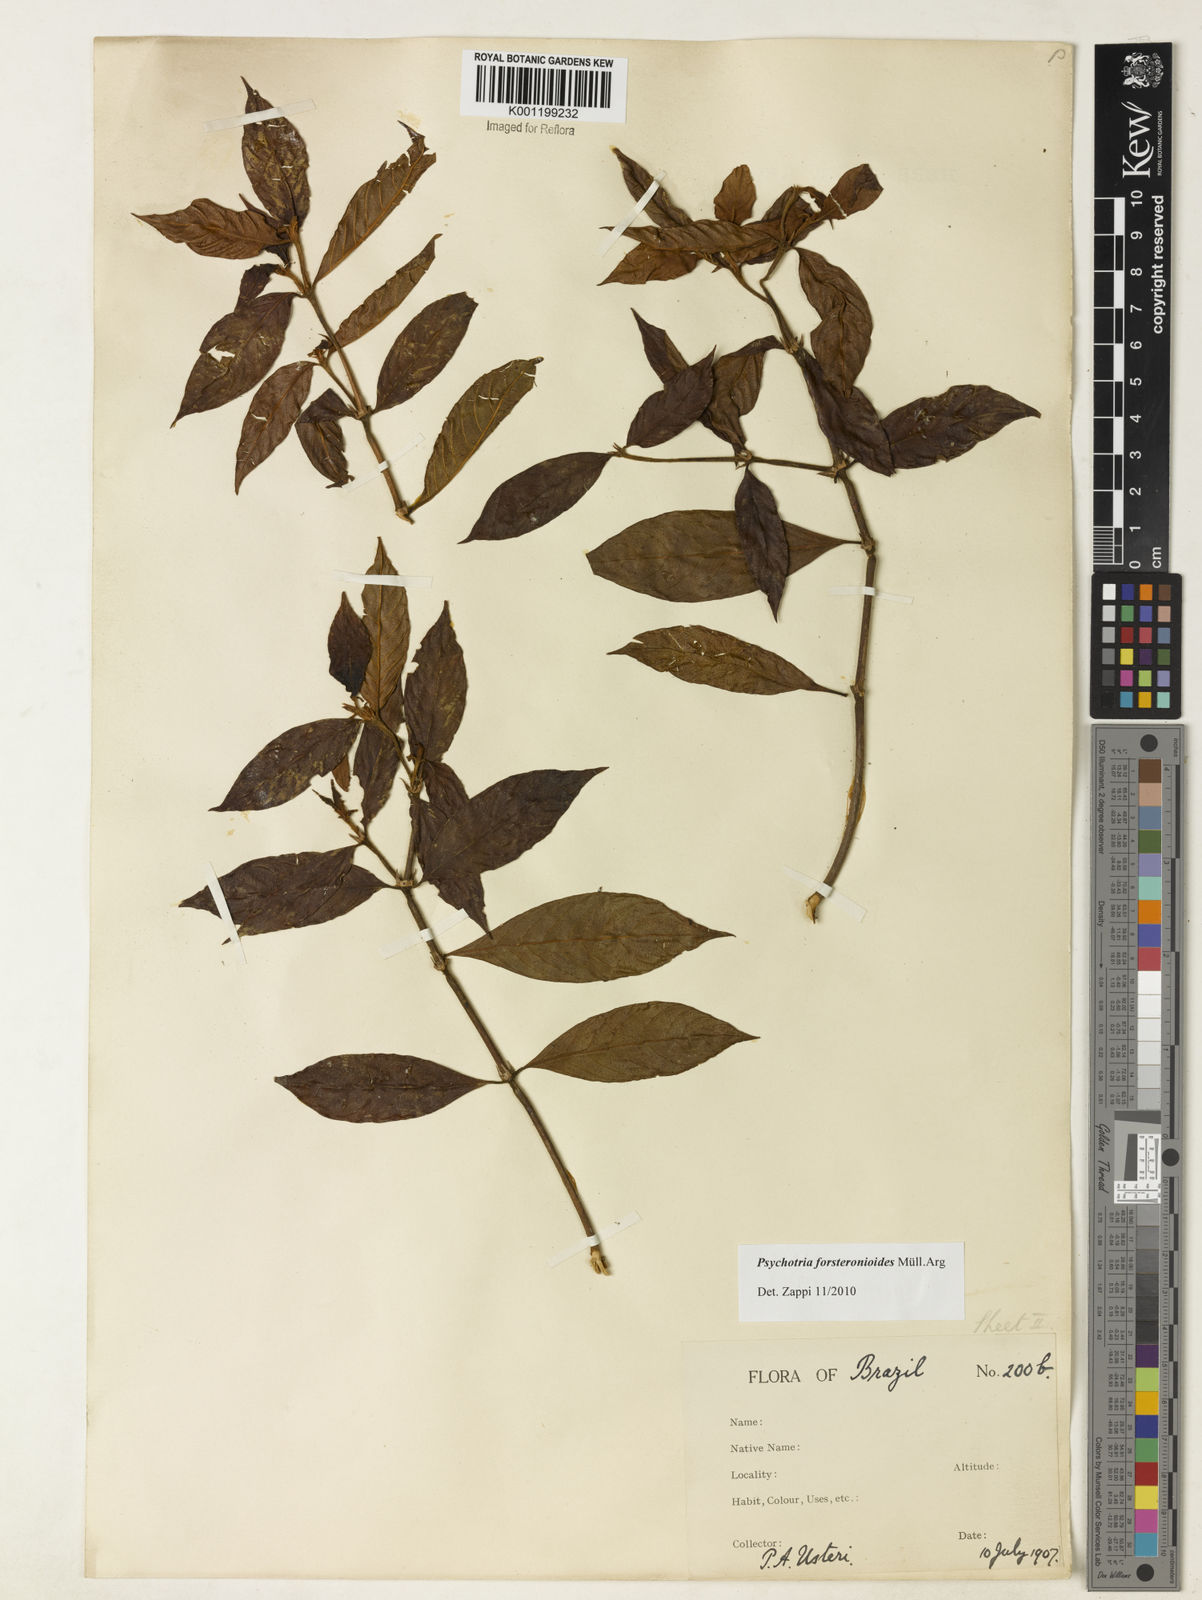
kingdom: Plantae
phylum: Tracheophyta
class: Magnoliopsida
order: Gentianales
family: Rubiaceae
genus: Psychotria
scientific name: Psychotria
